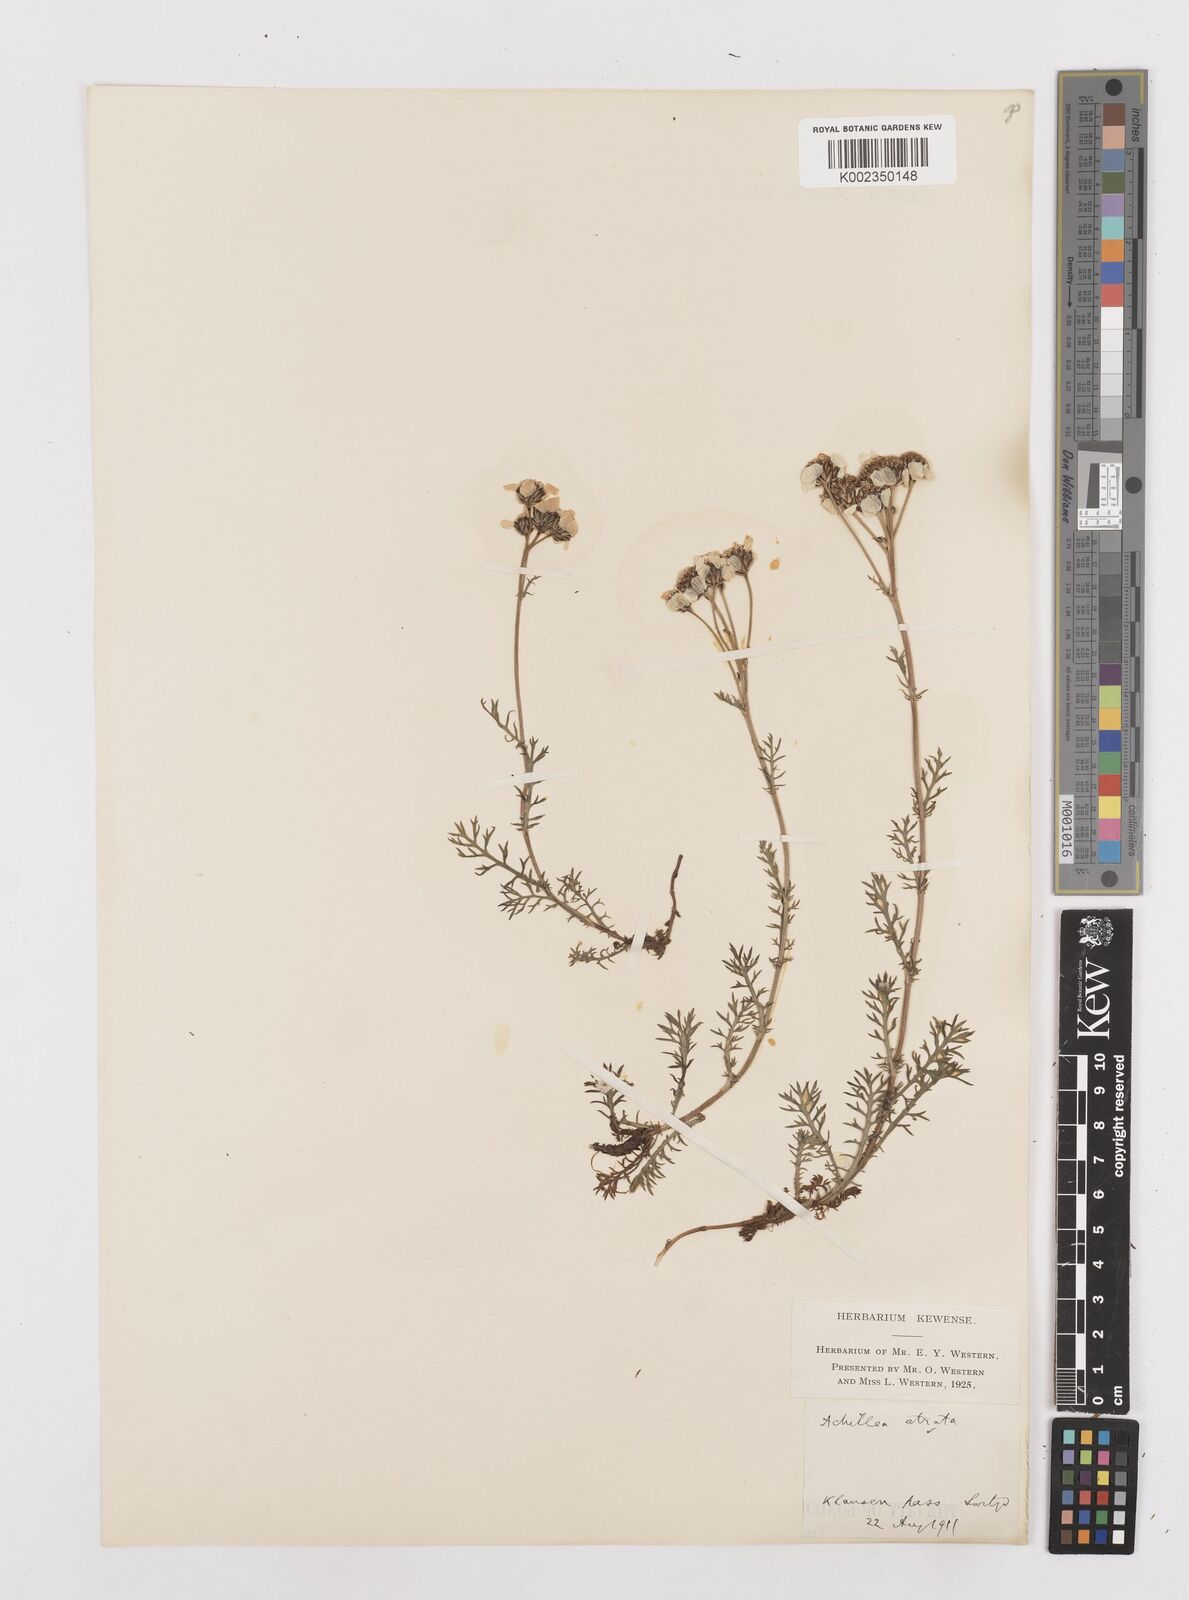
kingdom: Plantae
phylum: Tracheophyta
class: Magnoliopsida
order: Asterales
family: Asteraceae
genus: Achillea
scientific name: Achillea atrata
